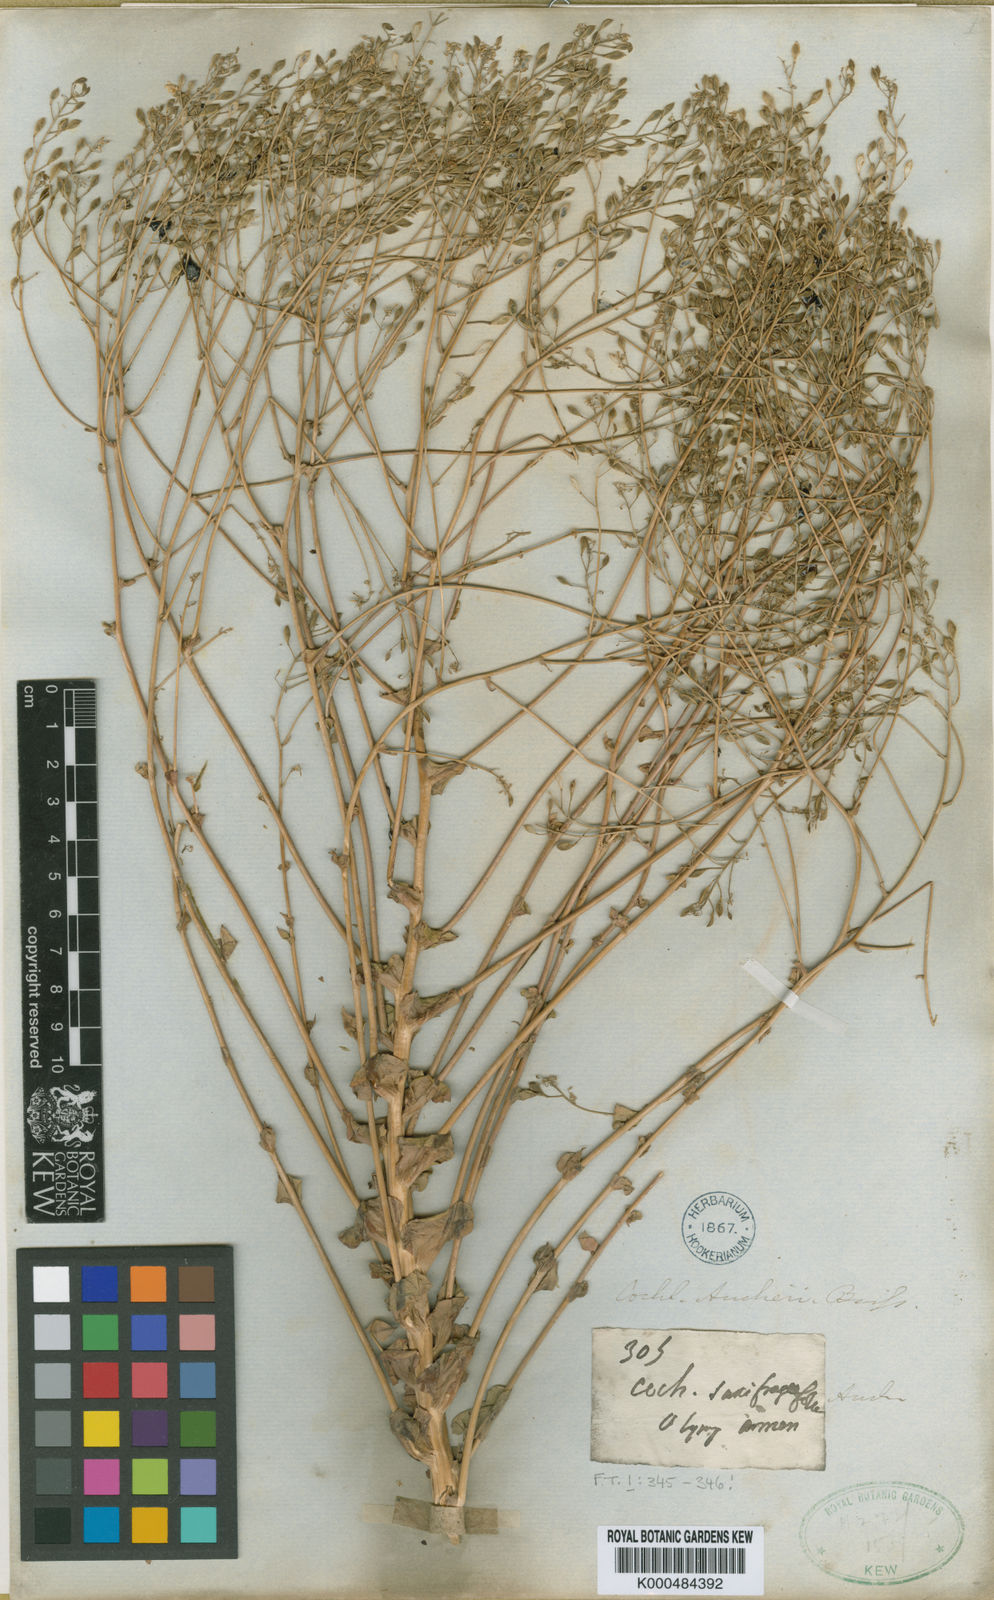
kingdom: Plantae
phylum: Tracheophyta
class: Magnoliopsida
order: Brassicales
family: Brassicaceae
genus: Pseudosempervivum
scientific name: Pseudosempervivum aucheri
